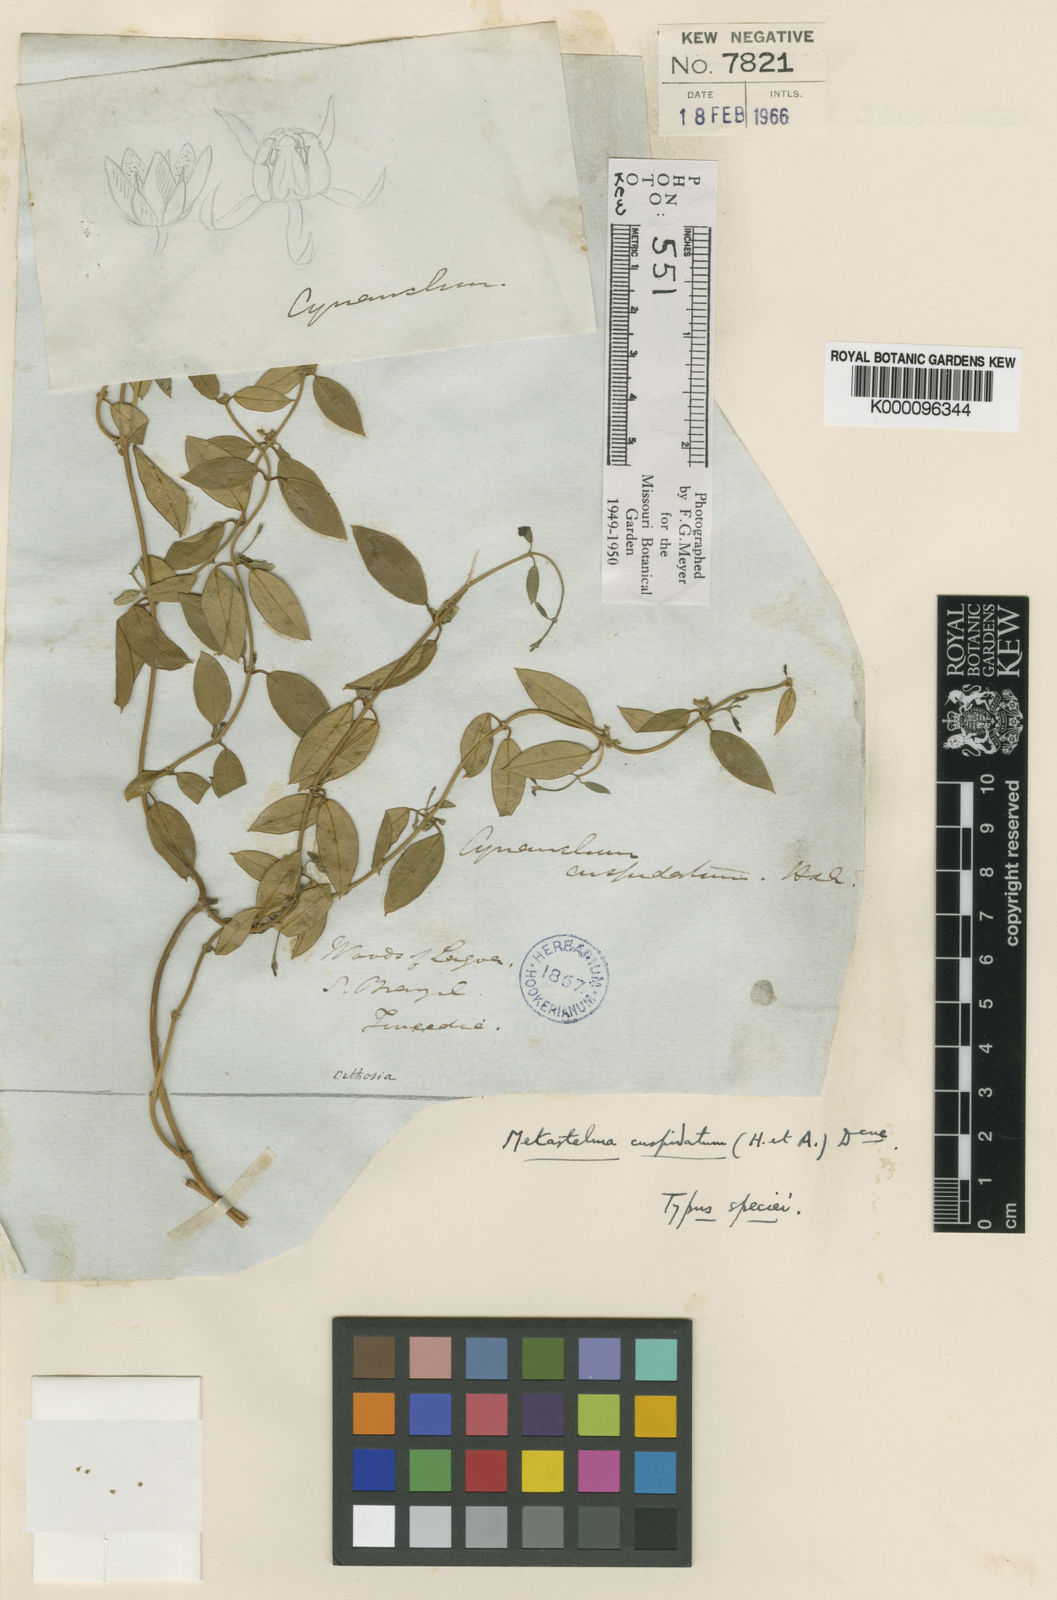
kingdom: Plantae
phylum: Tracheophyta
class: Magnoliopsida
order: Gentianales
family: Apocynaceae
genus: Metastelma
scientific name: Metastelma hookerianum
